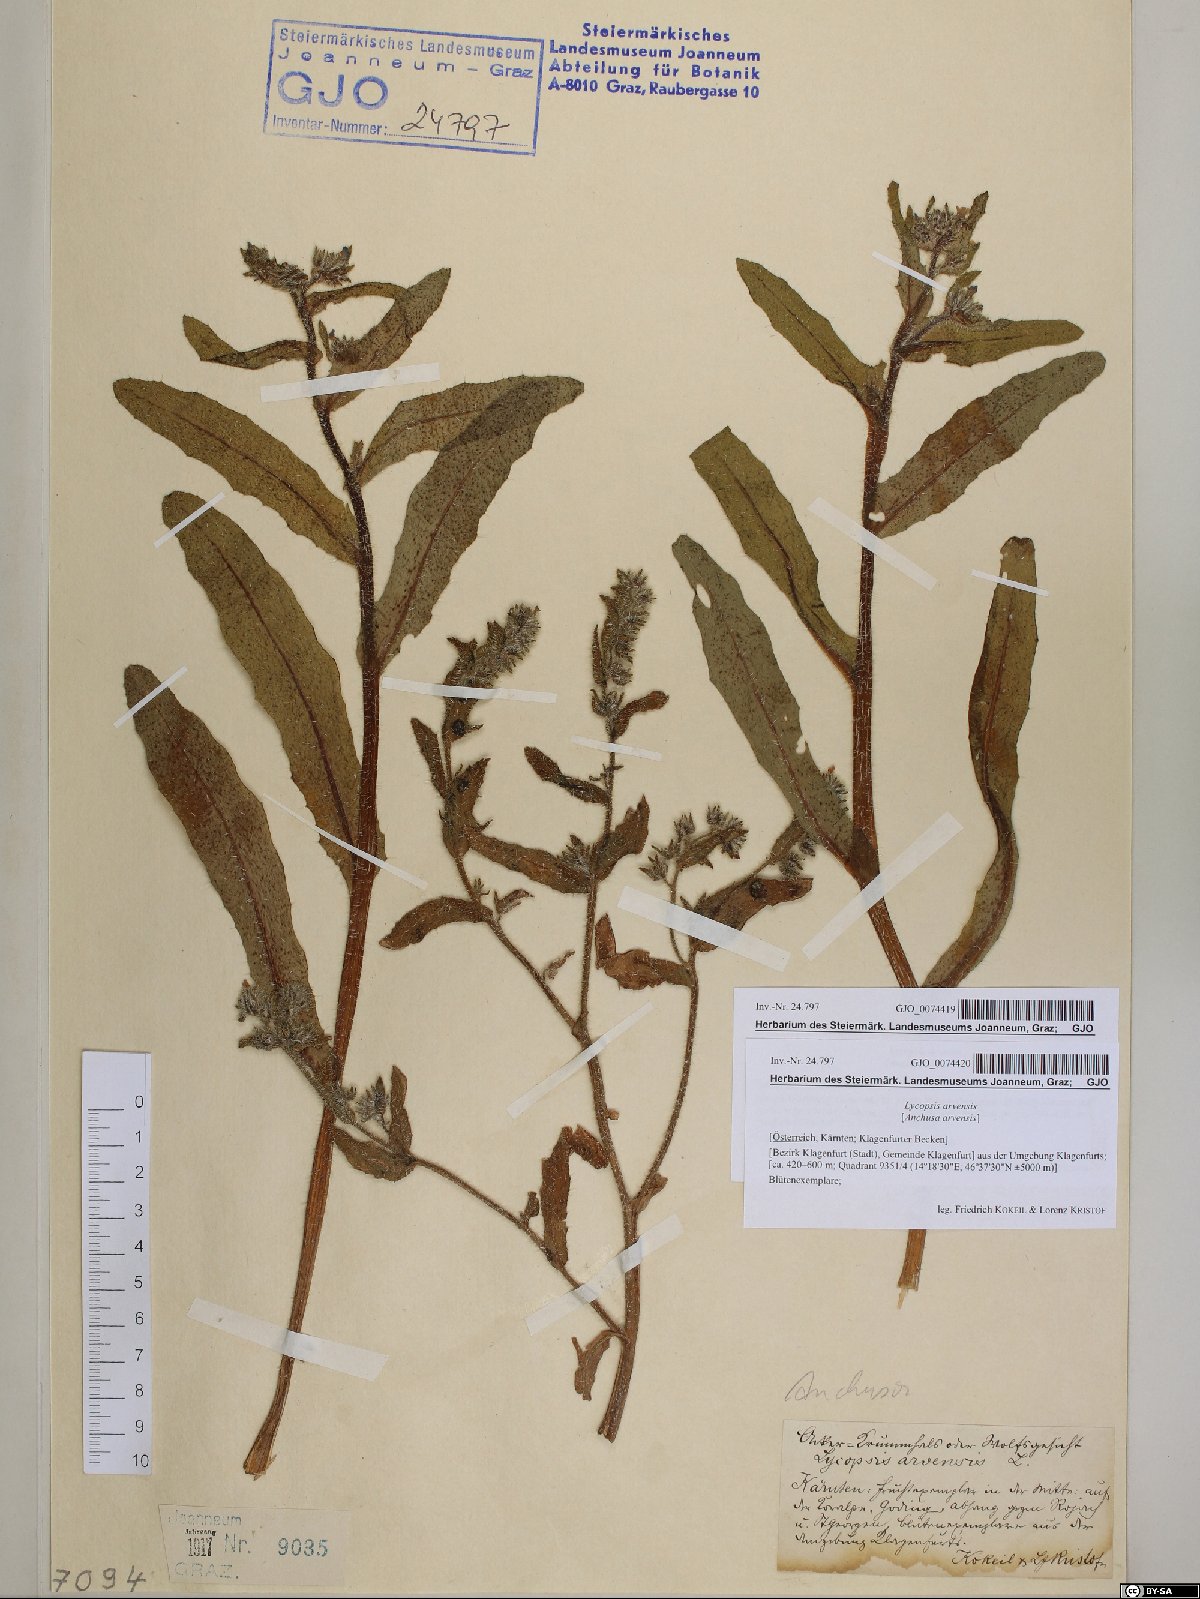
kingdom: Plantae
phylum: Tracheophyta
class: Magnoliopsida
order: Boraginales
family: Boraginaceae
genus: Lycopsis
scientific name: Lycopsis arvensis
